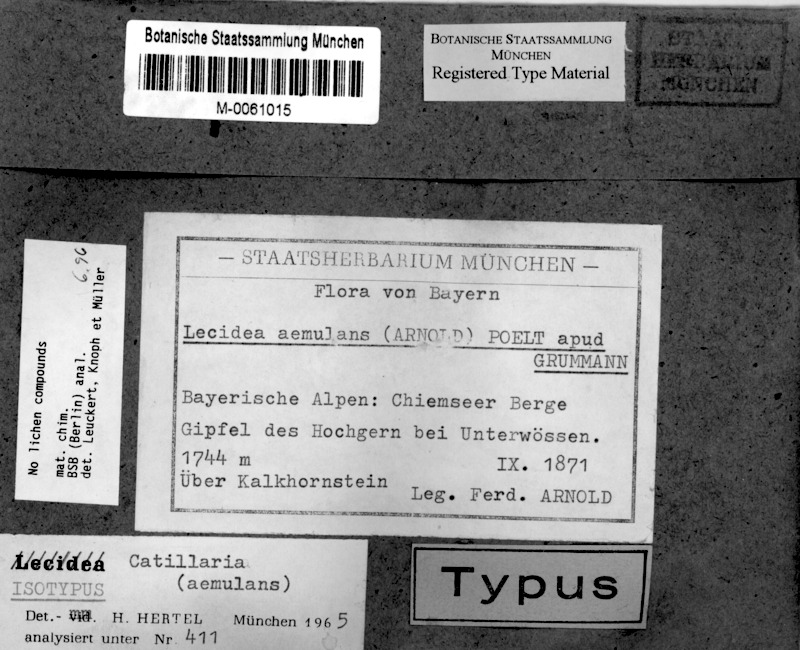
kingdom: Fungi
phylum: Ascomycota
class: Lecanoromycetes
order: Lecanorales
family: Lecanoraceae
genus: Lecidella
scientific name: Lecidella aemulans
